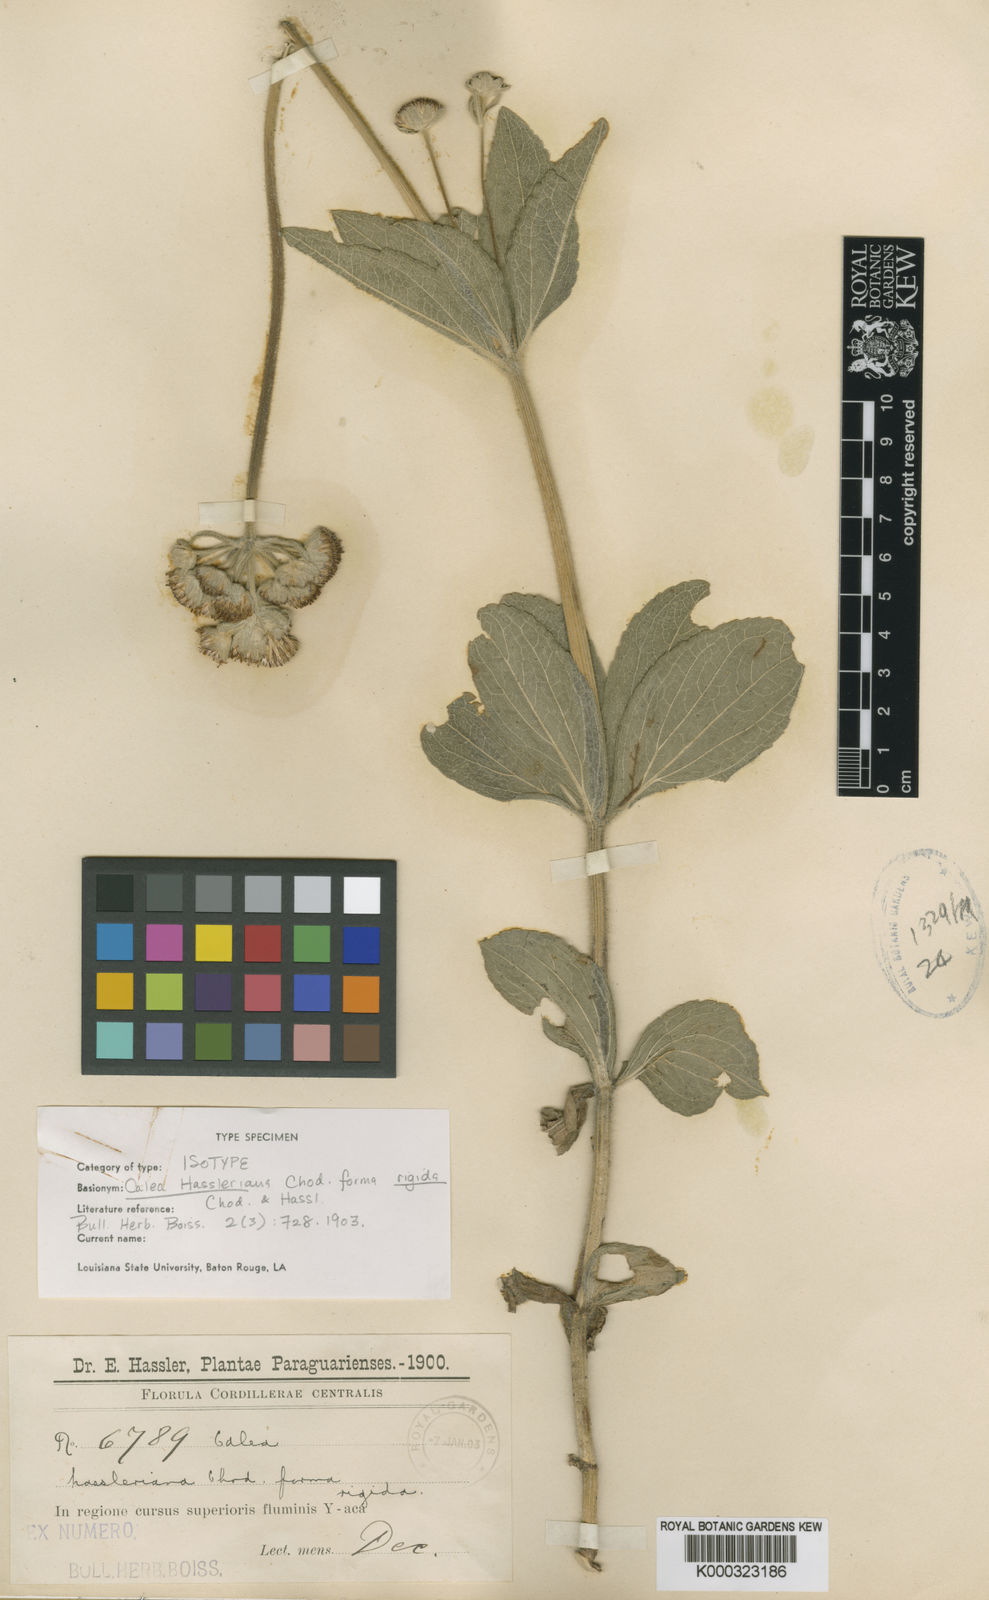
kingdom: Plantae
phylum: Tracheophyta
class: Magnoliopsida
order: Asterales
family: Asteraceae
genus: Calea
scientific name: Calea hassleriana
